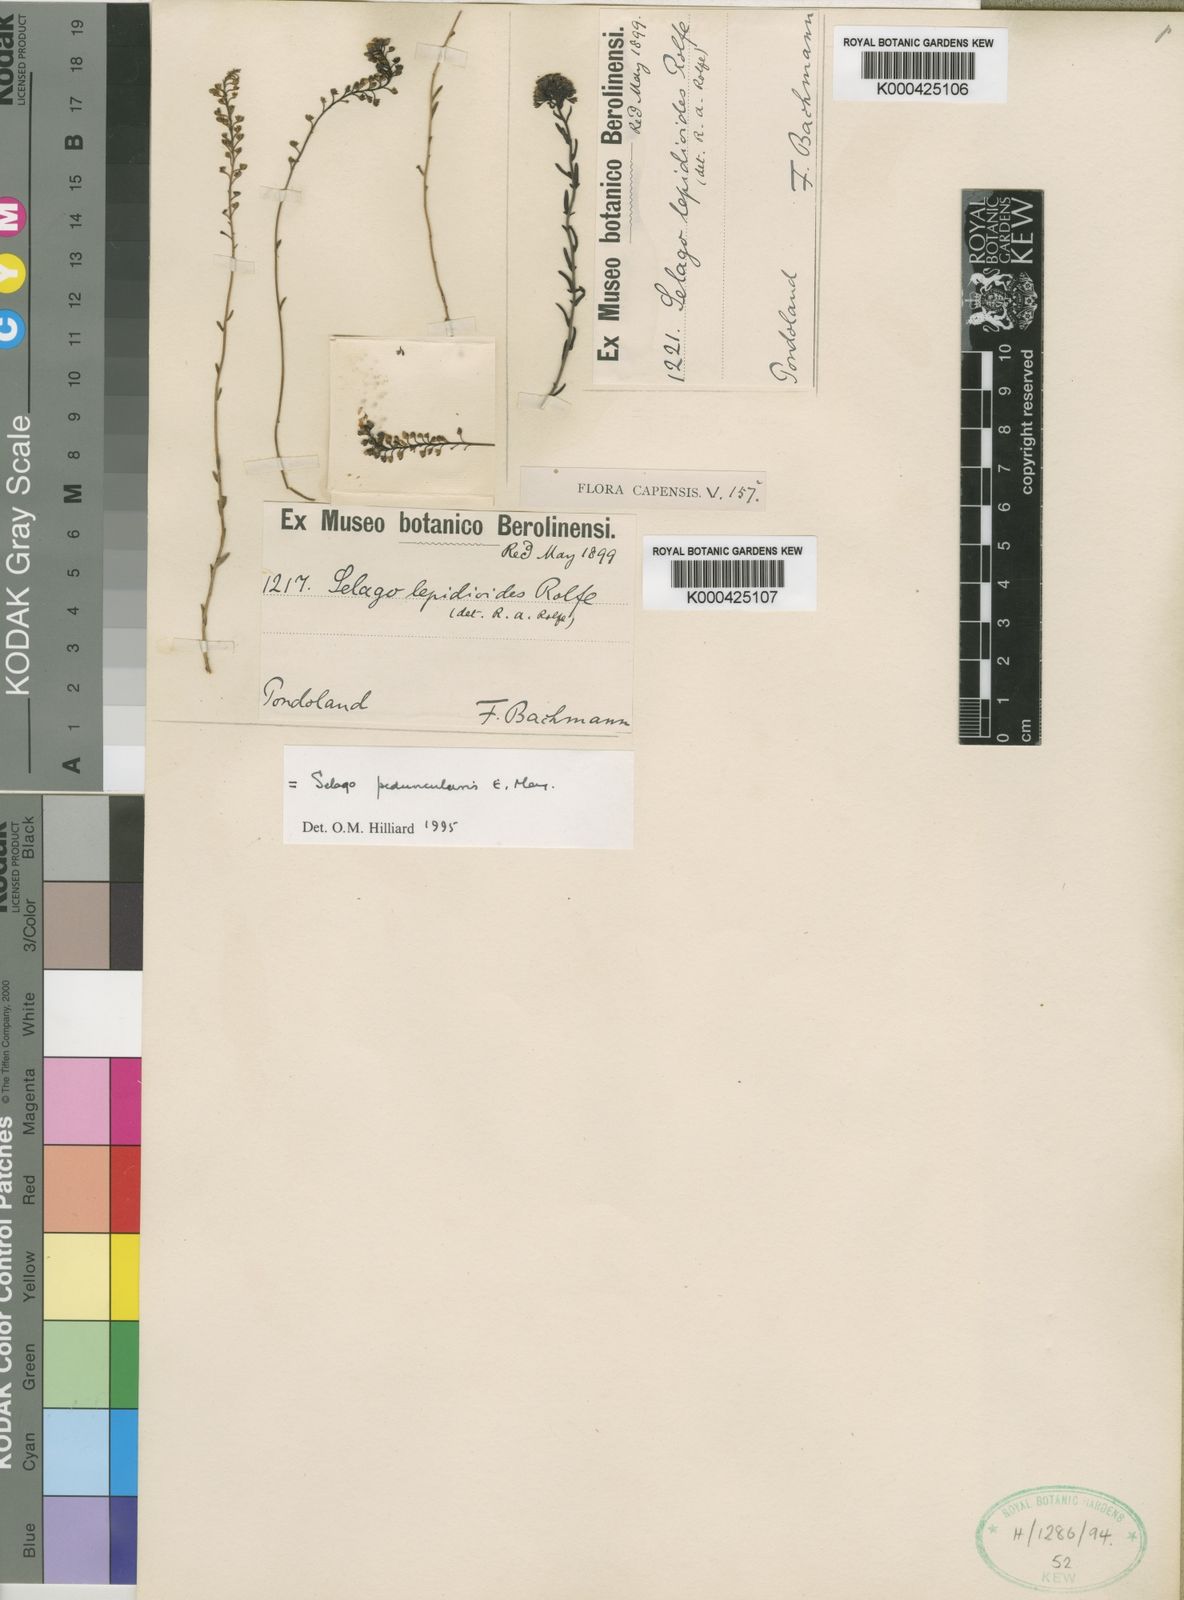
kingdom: Plantae
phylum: Tracheophyta
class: Magnoliopsida
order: Lamiales
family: Scrophulariaceae
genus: Selago
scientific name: Selago peduncularis
